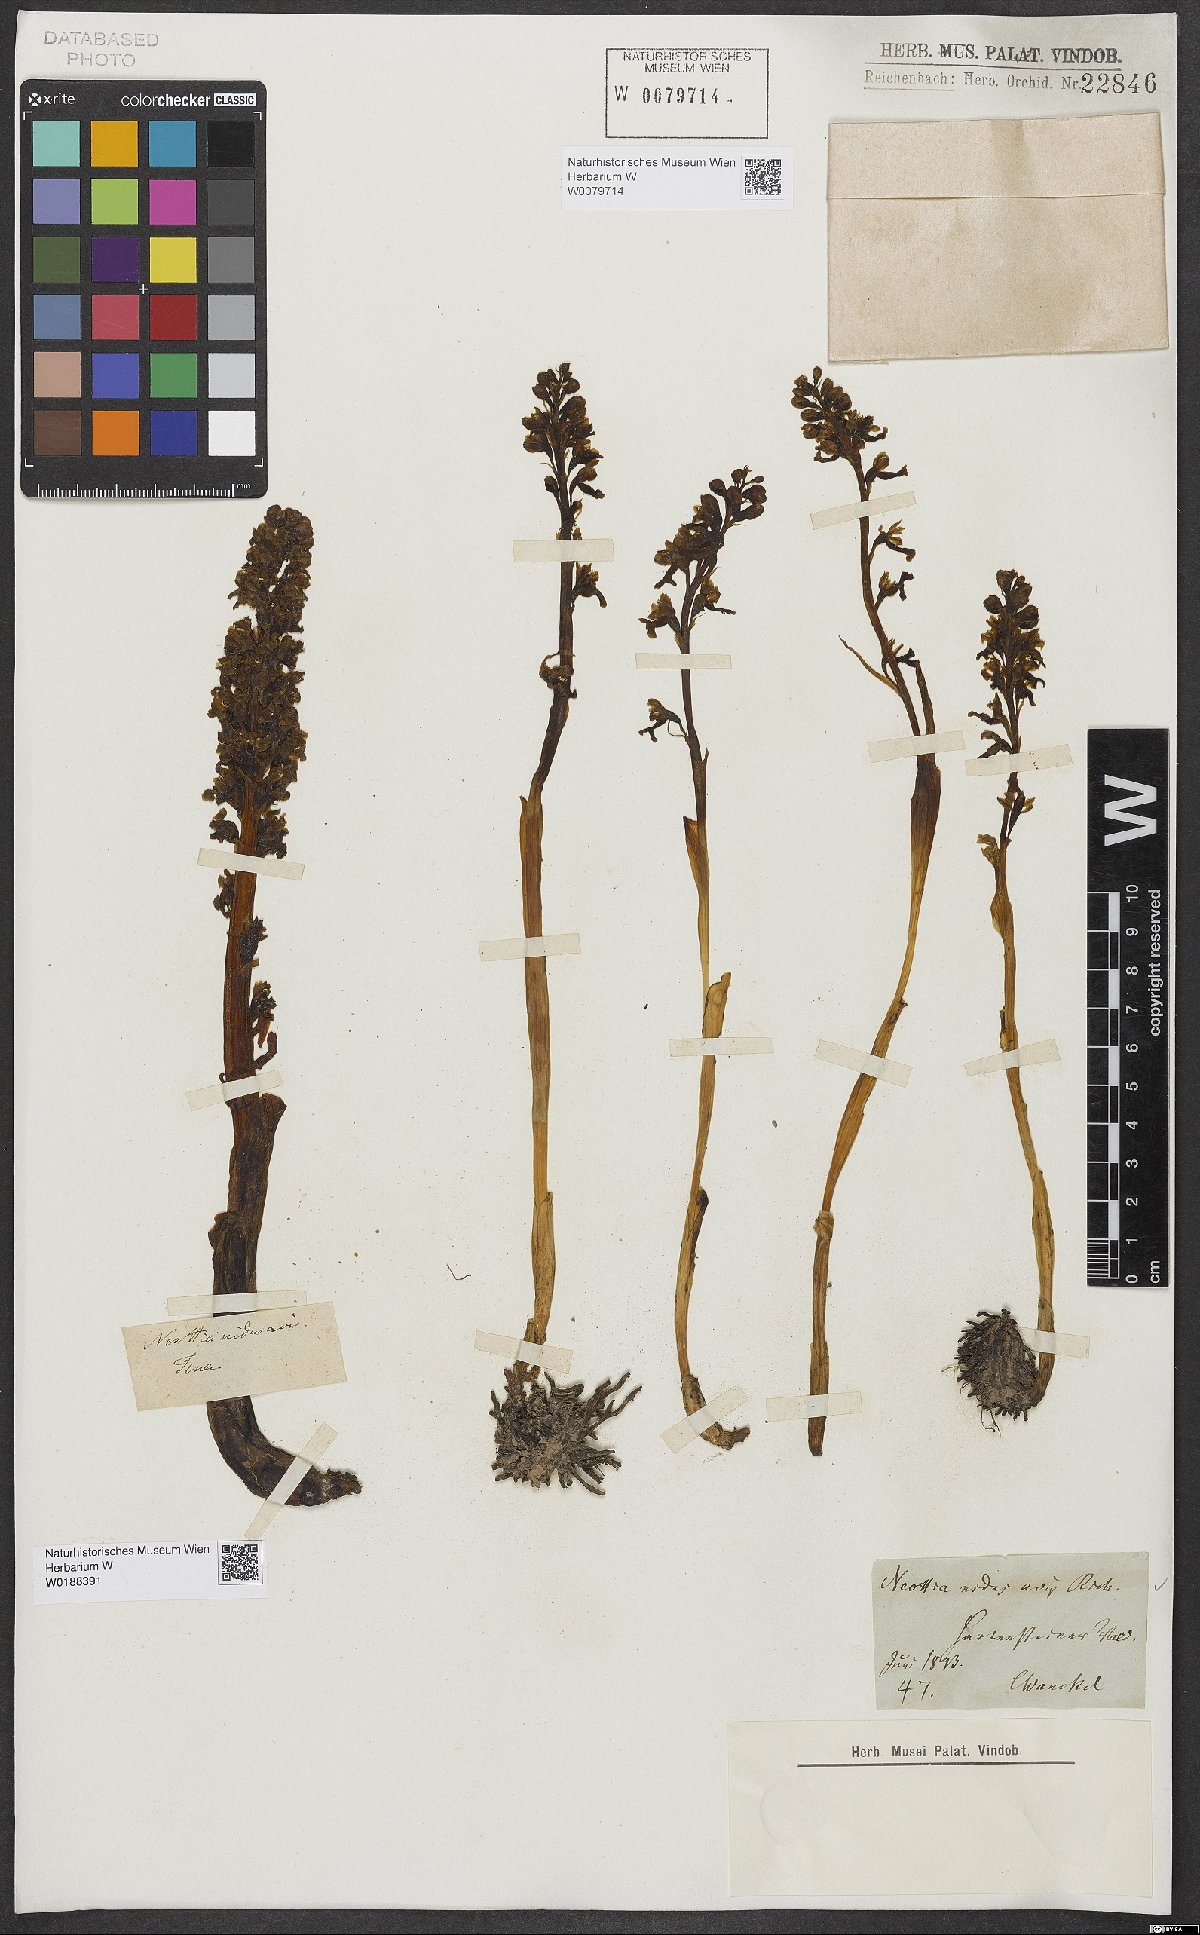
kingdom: Plantae
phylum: Tracheophyta
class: Liliopsida
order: Asparagales
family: Orchidaceae
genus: Neottia
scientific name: Neottia nidus-avis
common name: Bird's-nest orchid
